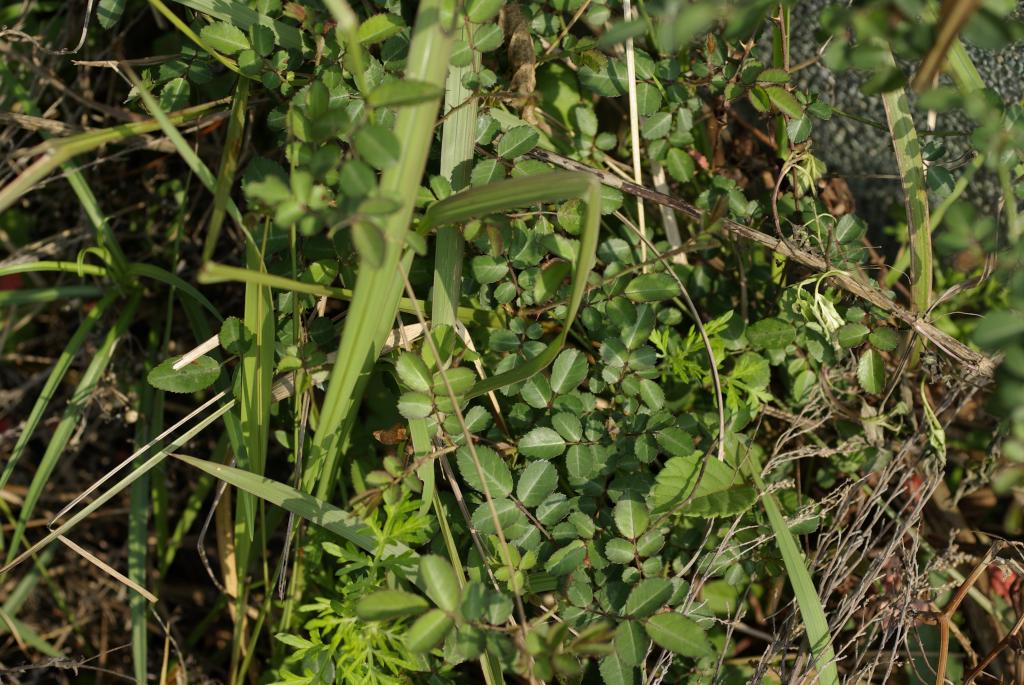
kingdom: Plantae
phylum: Tracheophyta
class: Magnoliopsida
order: Rosales
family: Rosaceae
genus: Rosa
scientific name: Rosa bracteata
